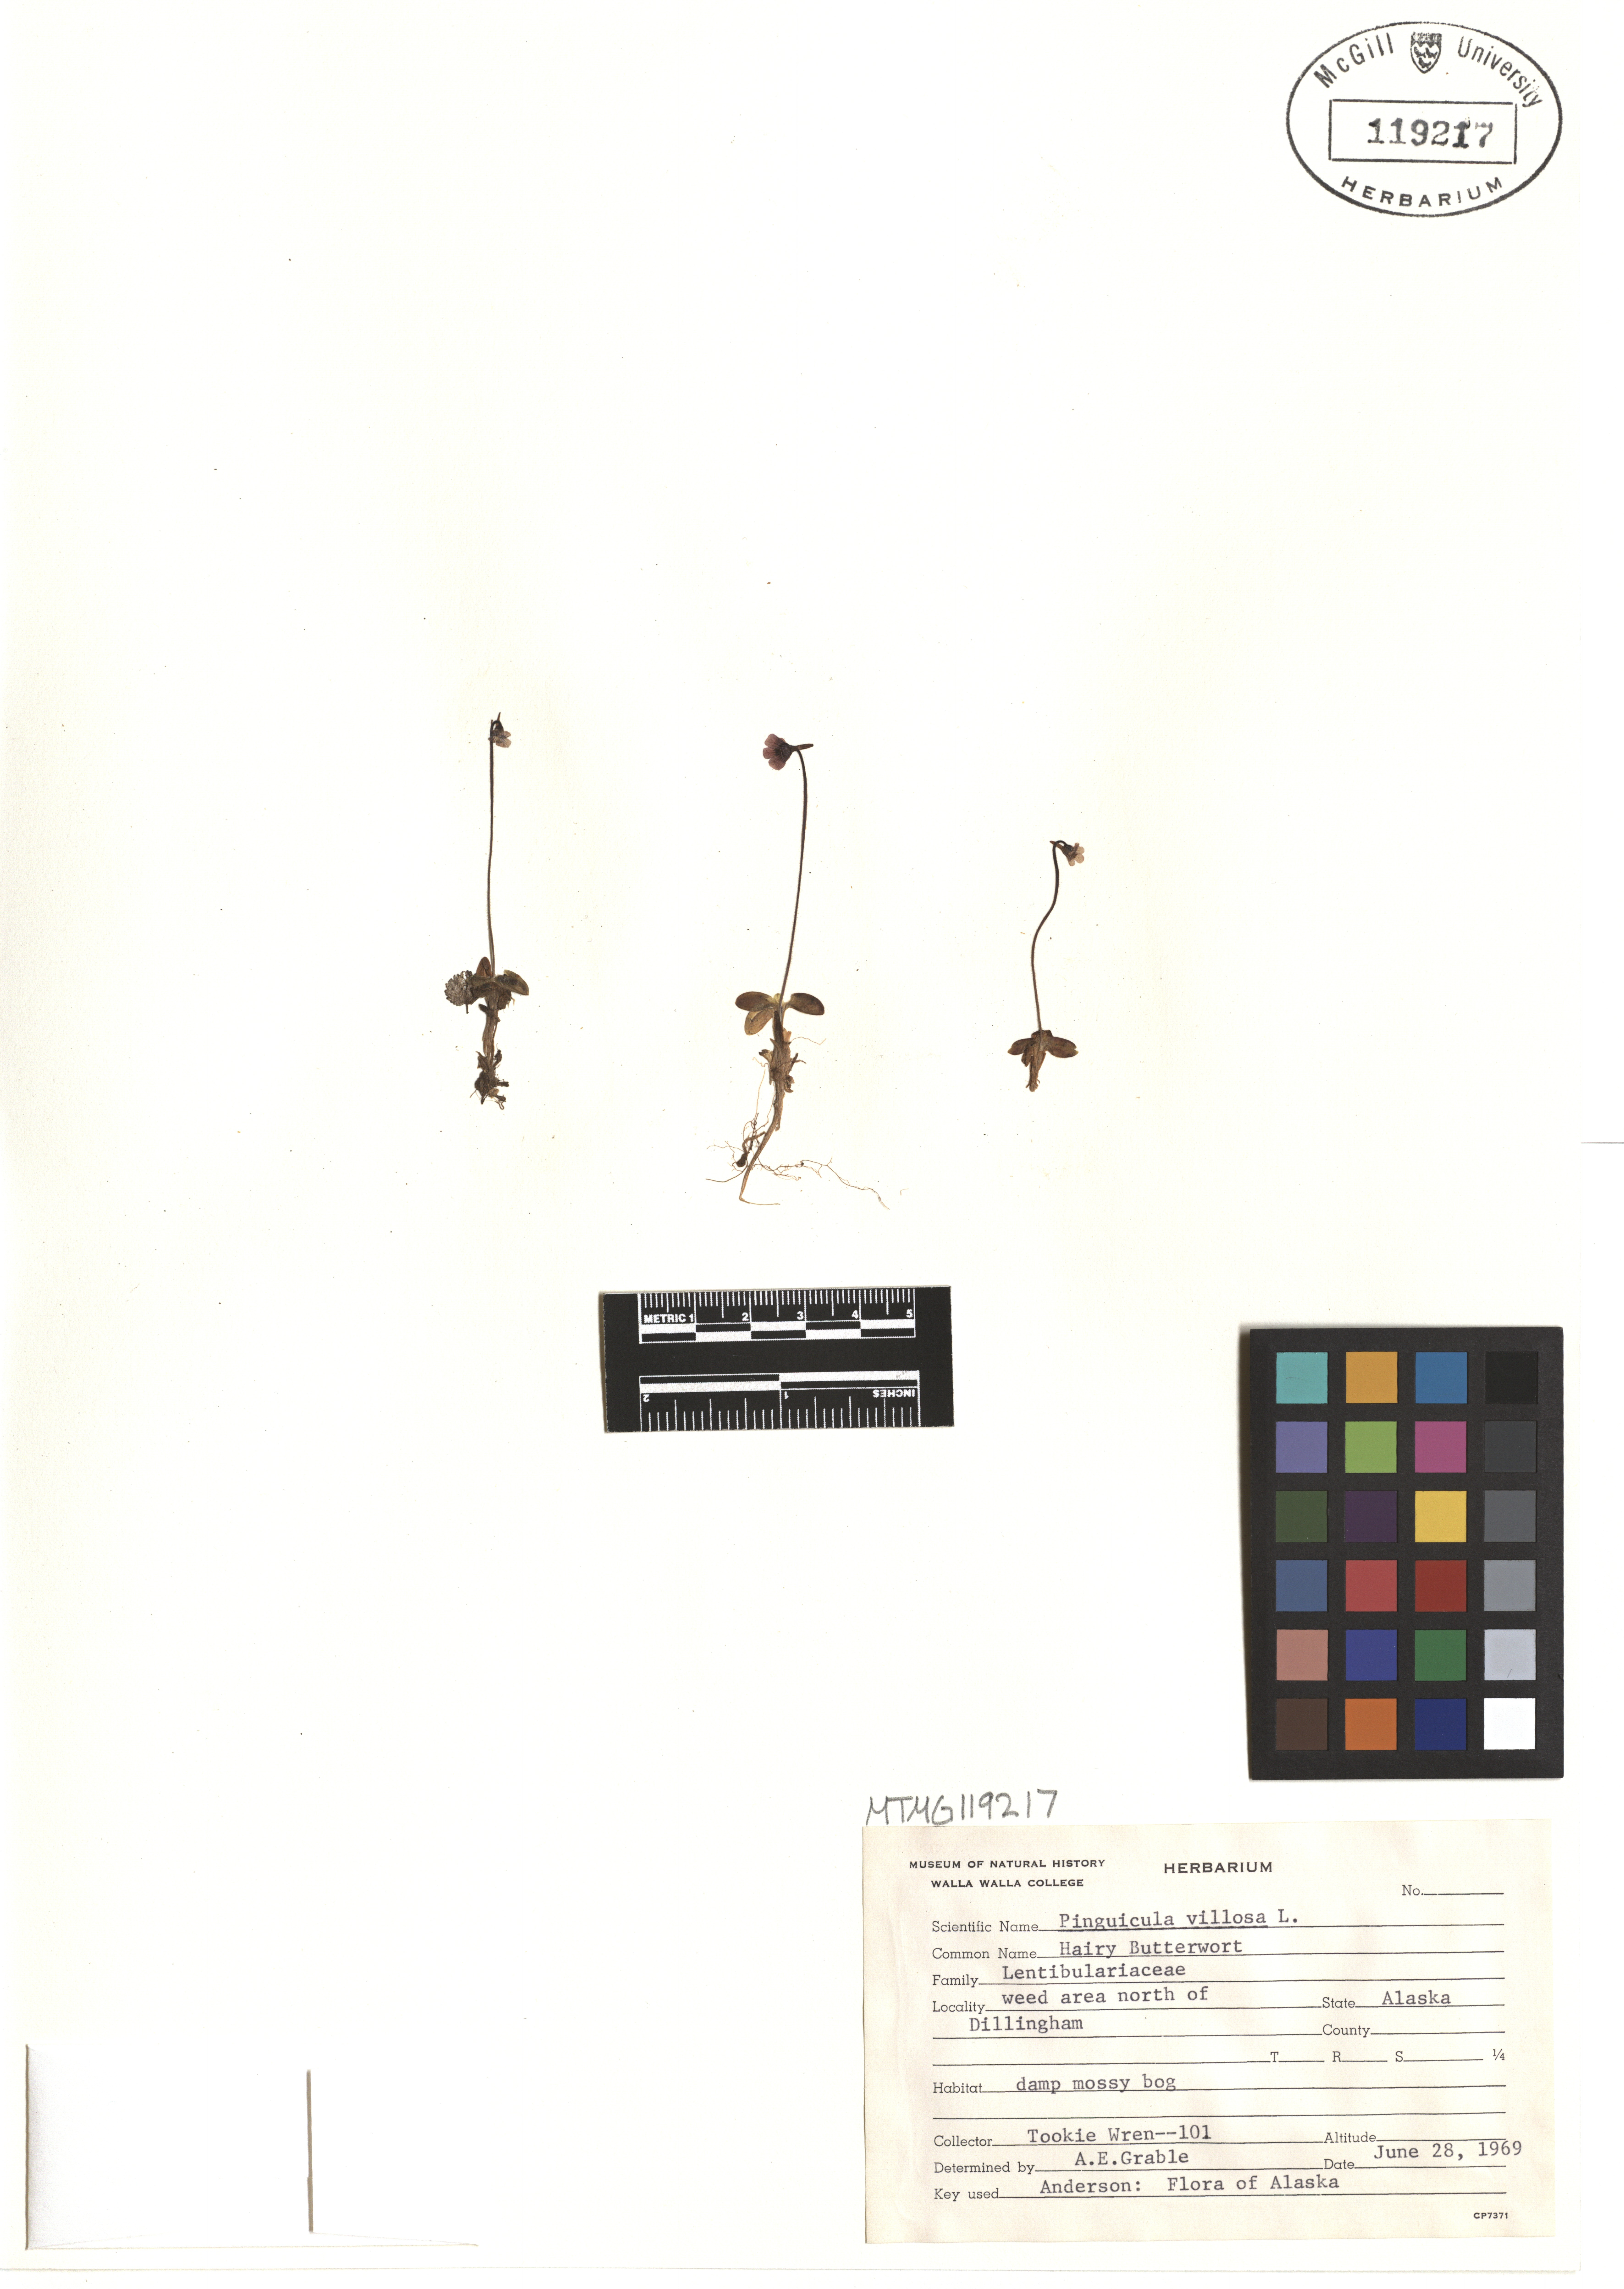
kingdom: Plantae
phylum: Tracheophyta
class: Magnoliopsida
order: Lamiales
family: Lentibulariaceae
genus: Pinguicula
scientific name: Pinguicula villosa
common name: Hairy butterwort
